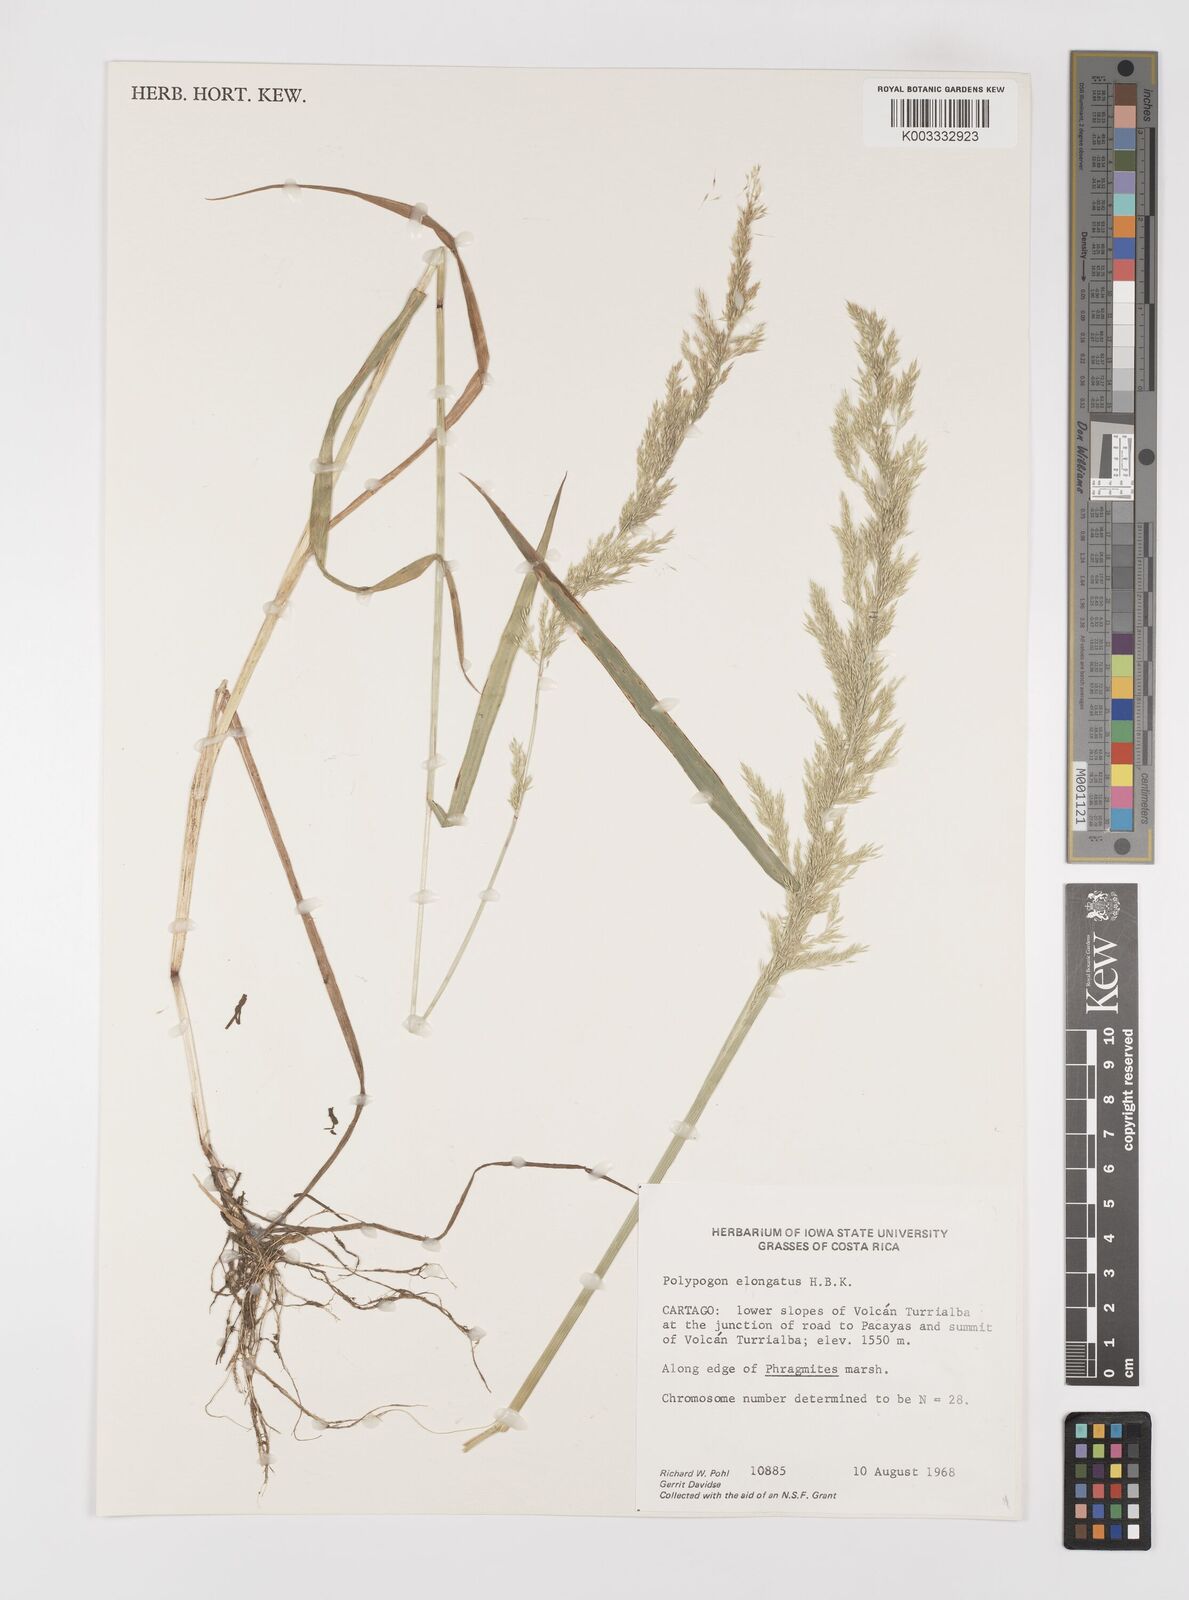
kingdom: Plantae
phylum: Tracheophyta
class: Liliopsida
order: Poales
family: Poaceae
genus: Polypogon
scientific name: Polypogon elongatus
